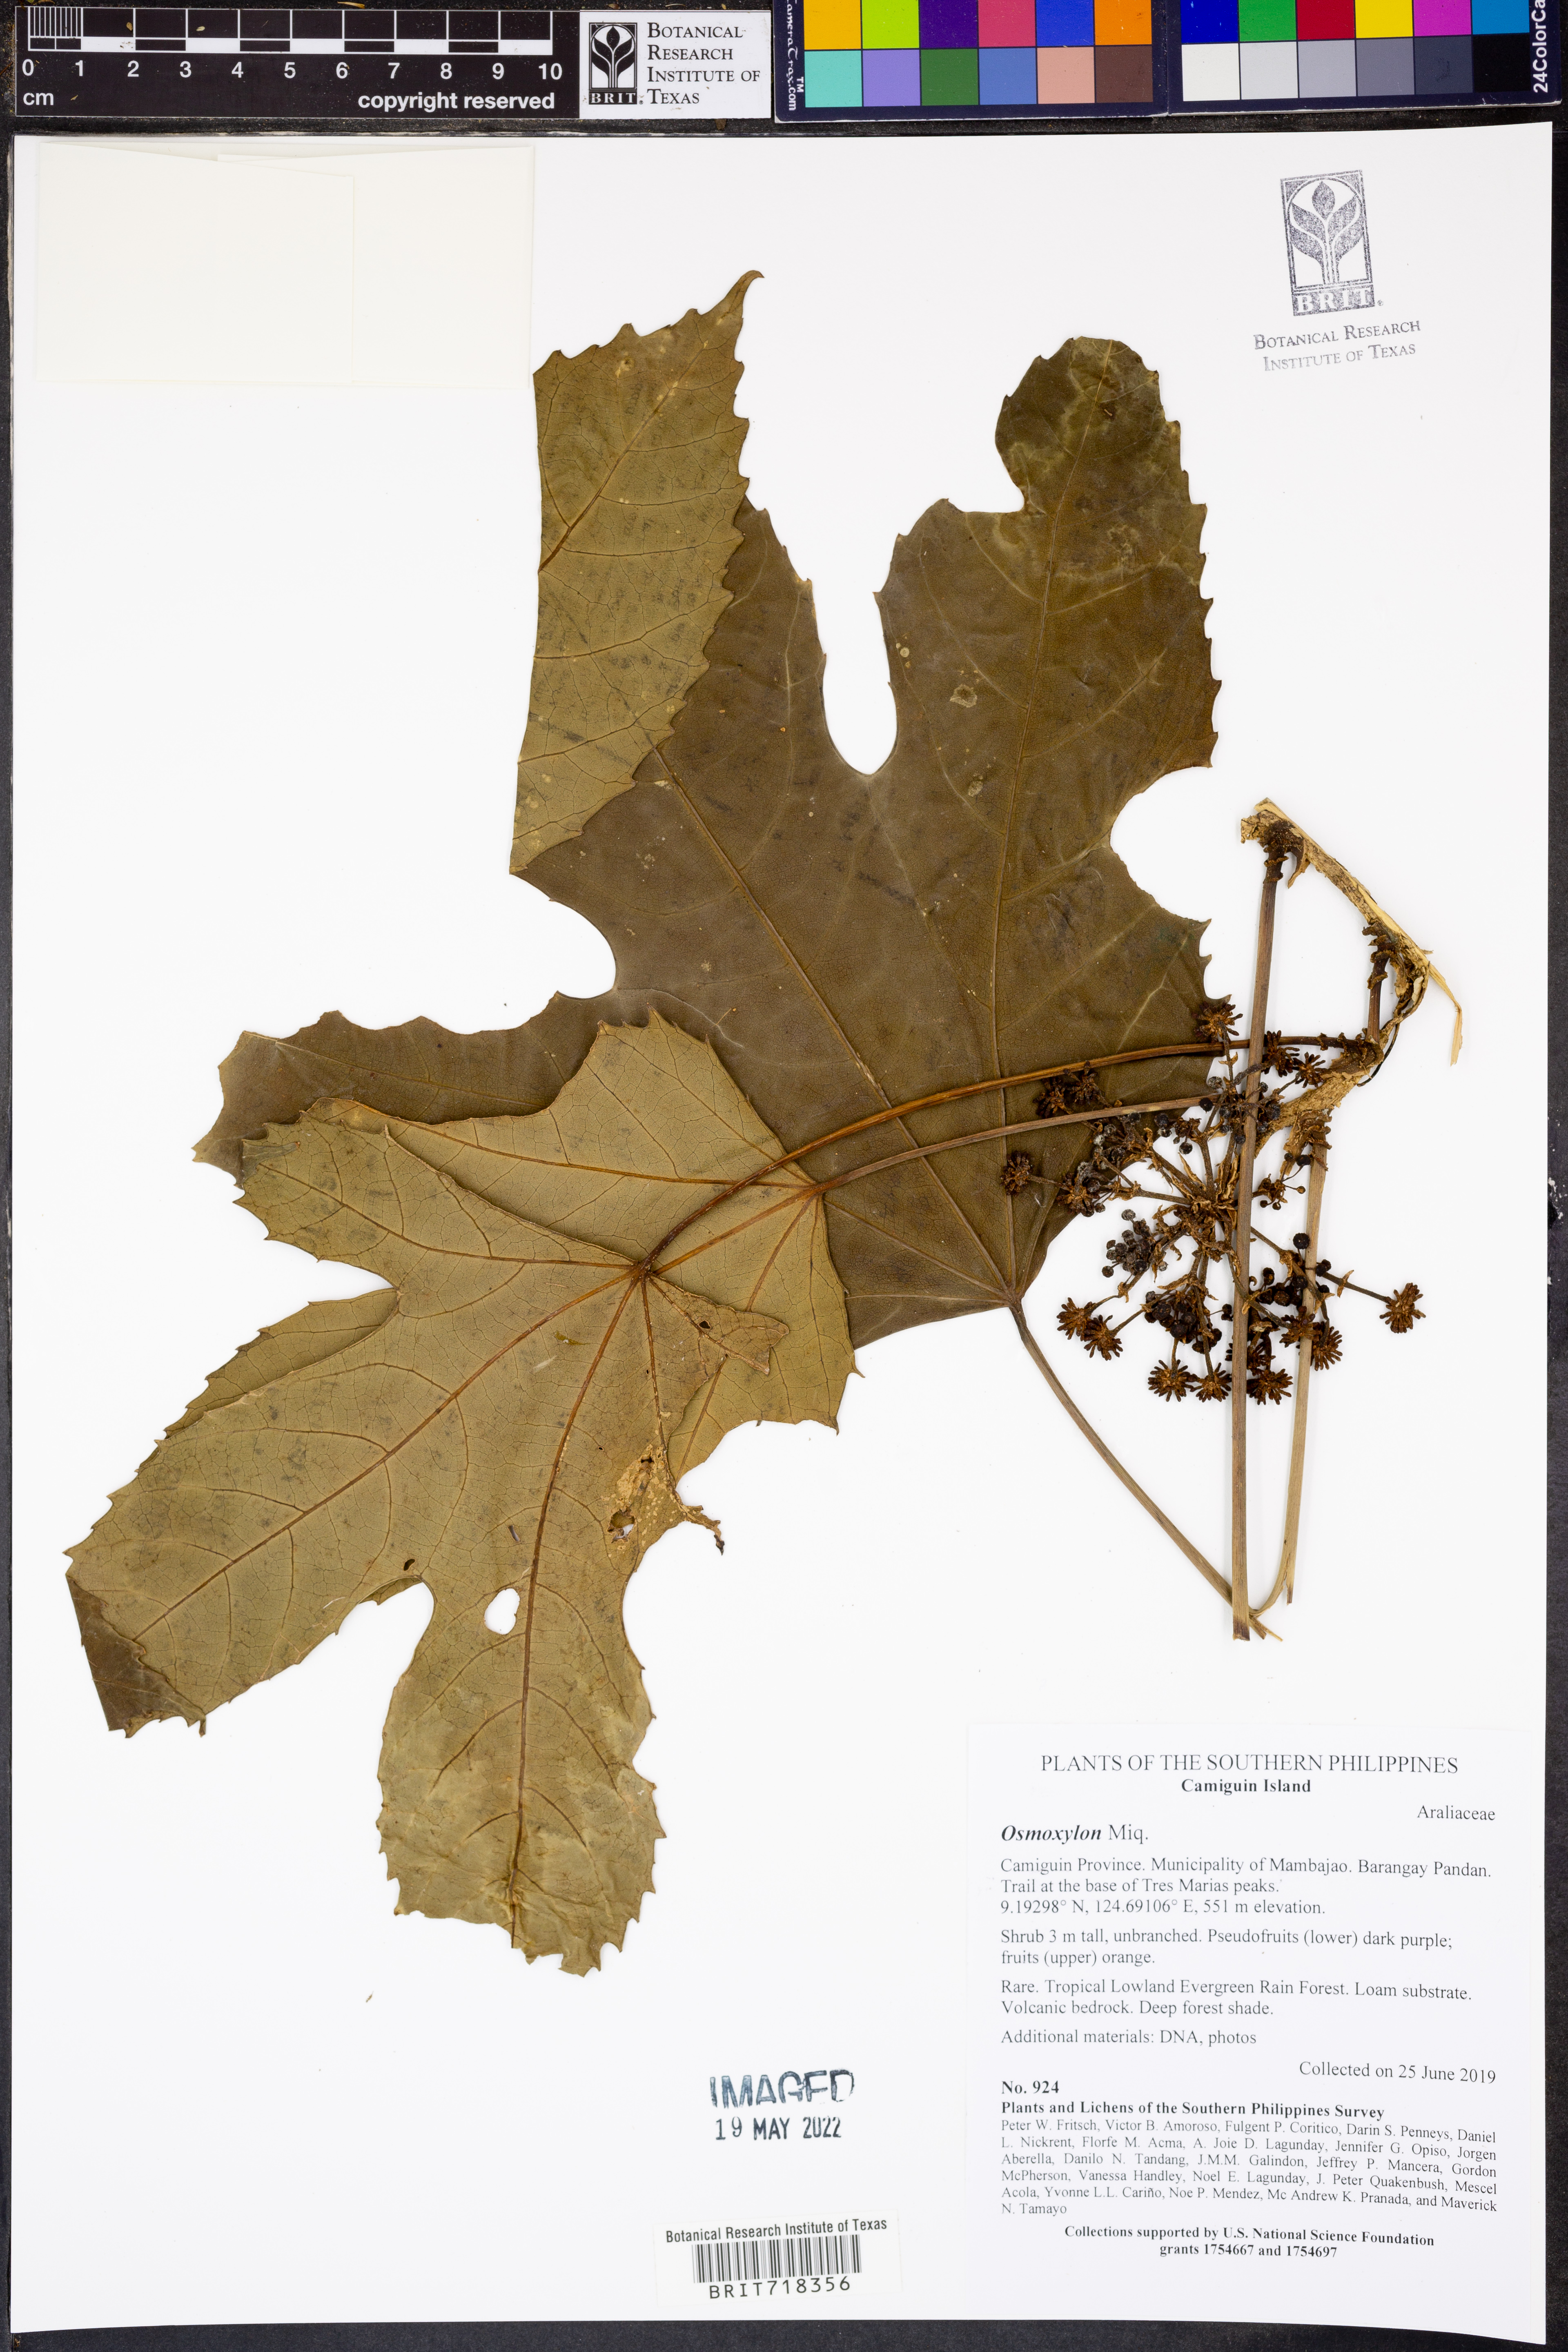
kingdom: Plantae
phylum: Tracheophyta
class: Magnoliopsida
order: Apiales
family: Araliaceae
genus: Osmoxylon
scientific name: Osmoxylon
